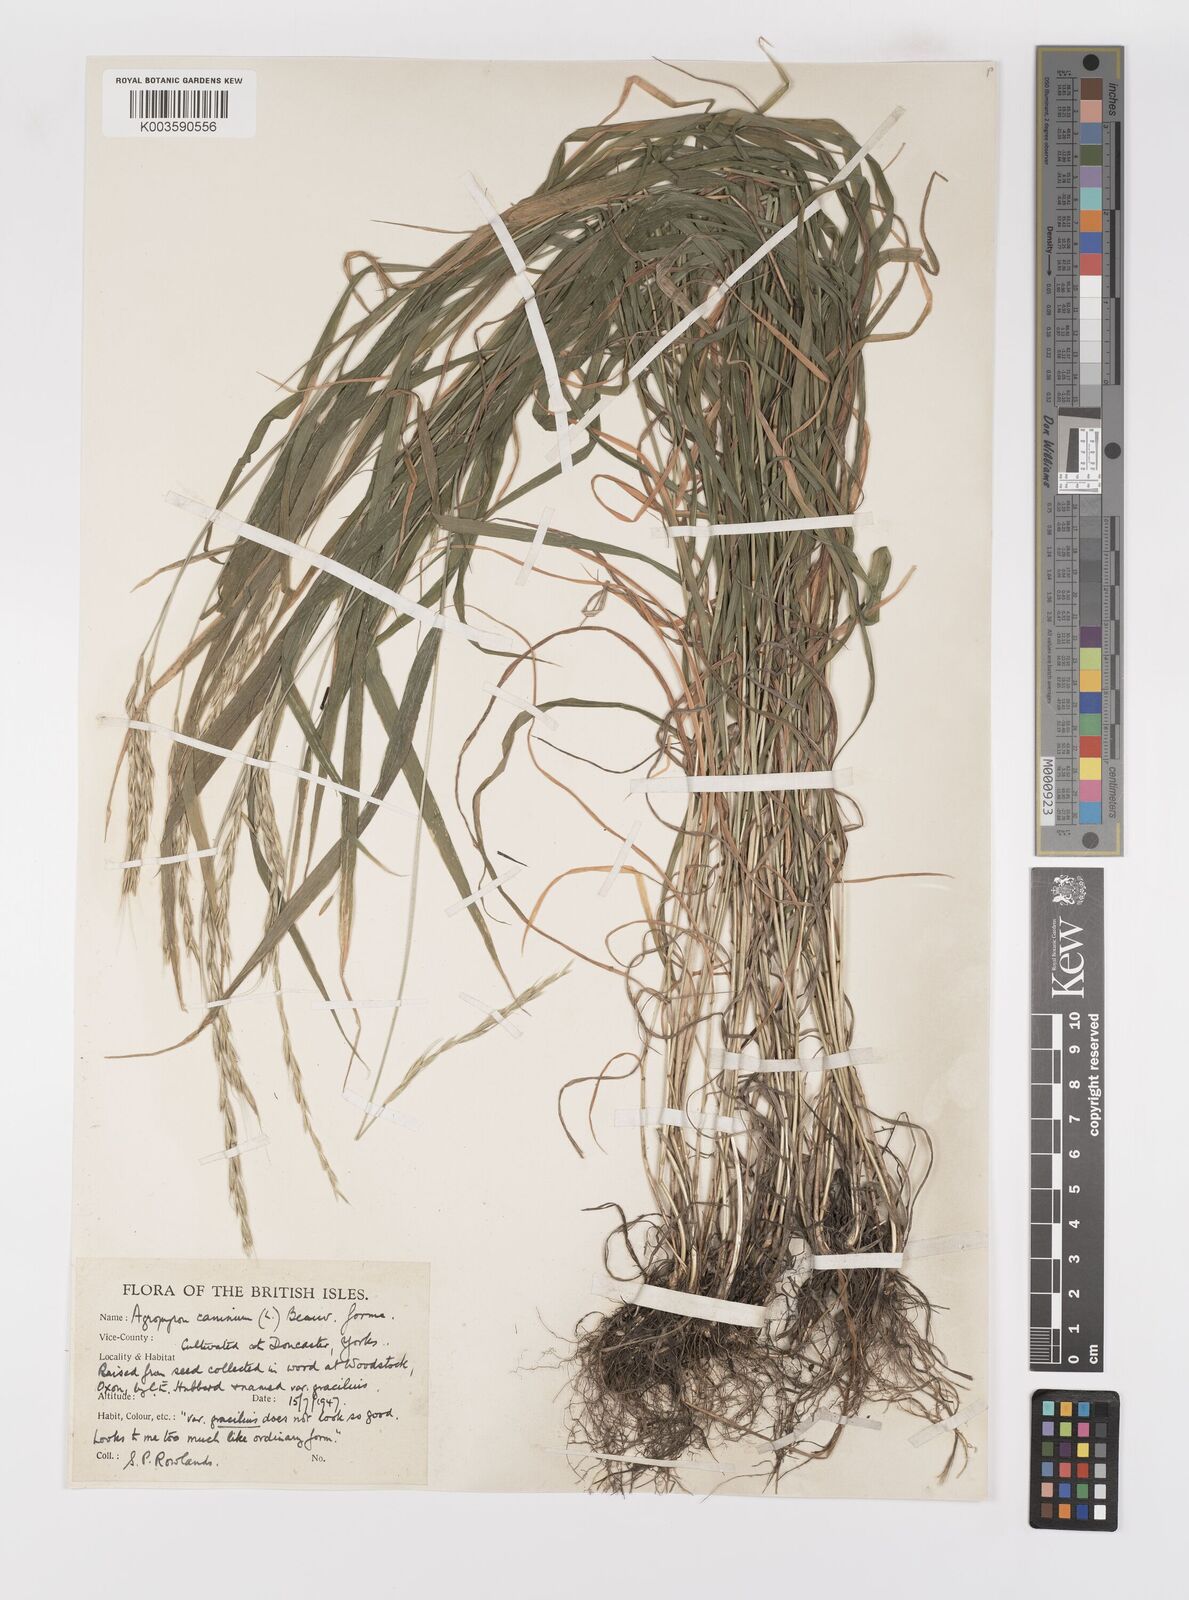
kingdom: Plantae
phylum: Tracheophyta
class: Liliopsida
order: Poales
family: Poaceae
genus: Elymus
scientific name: Elymus caninus
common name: Bearded couch
